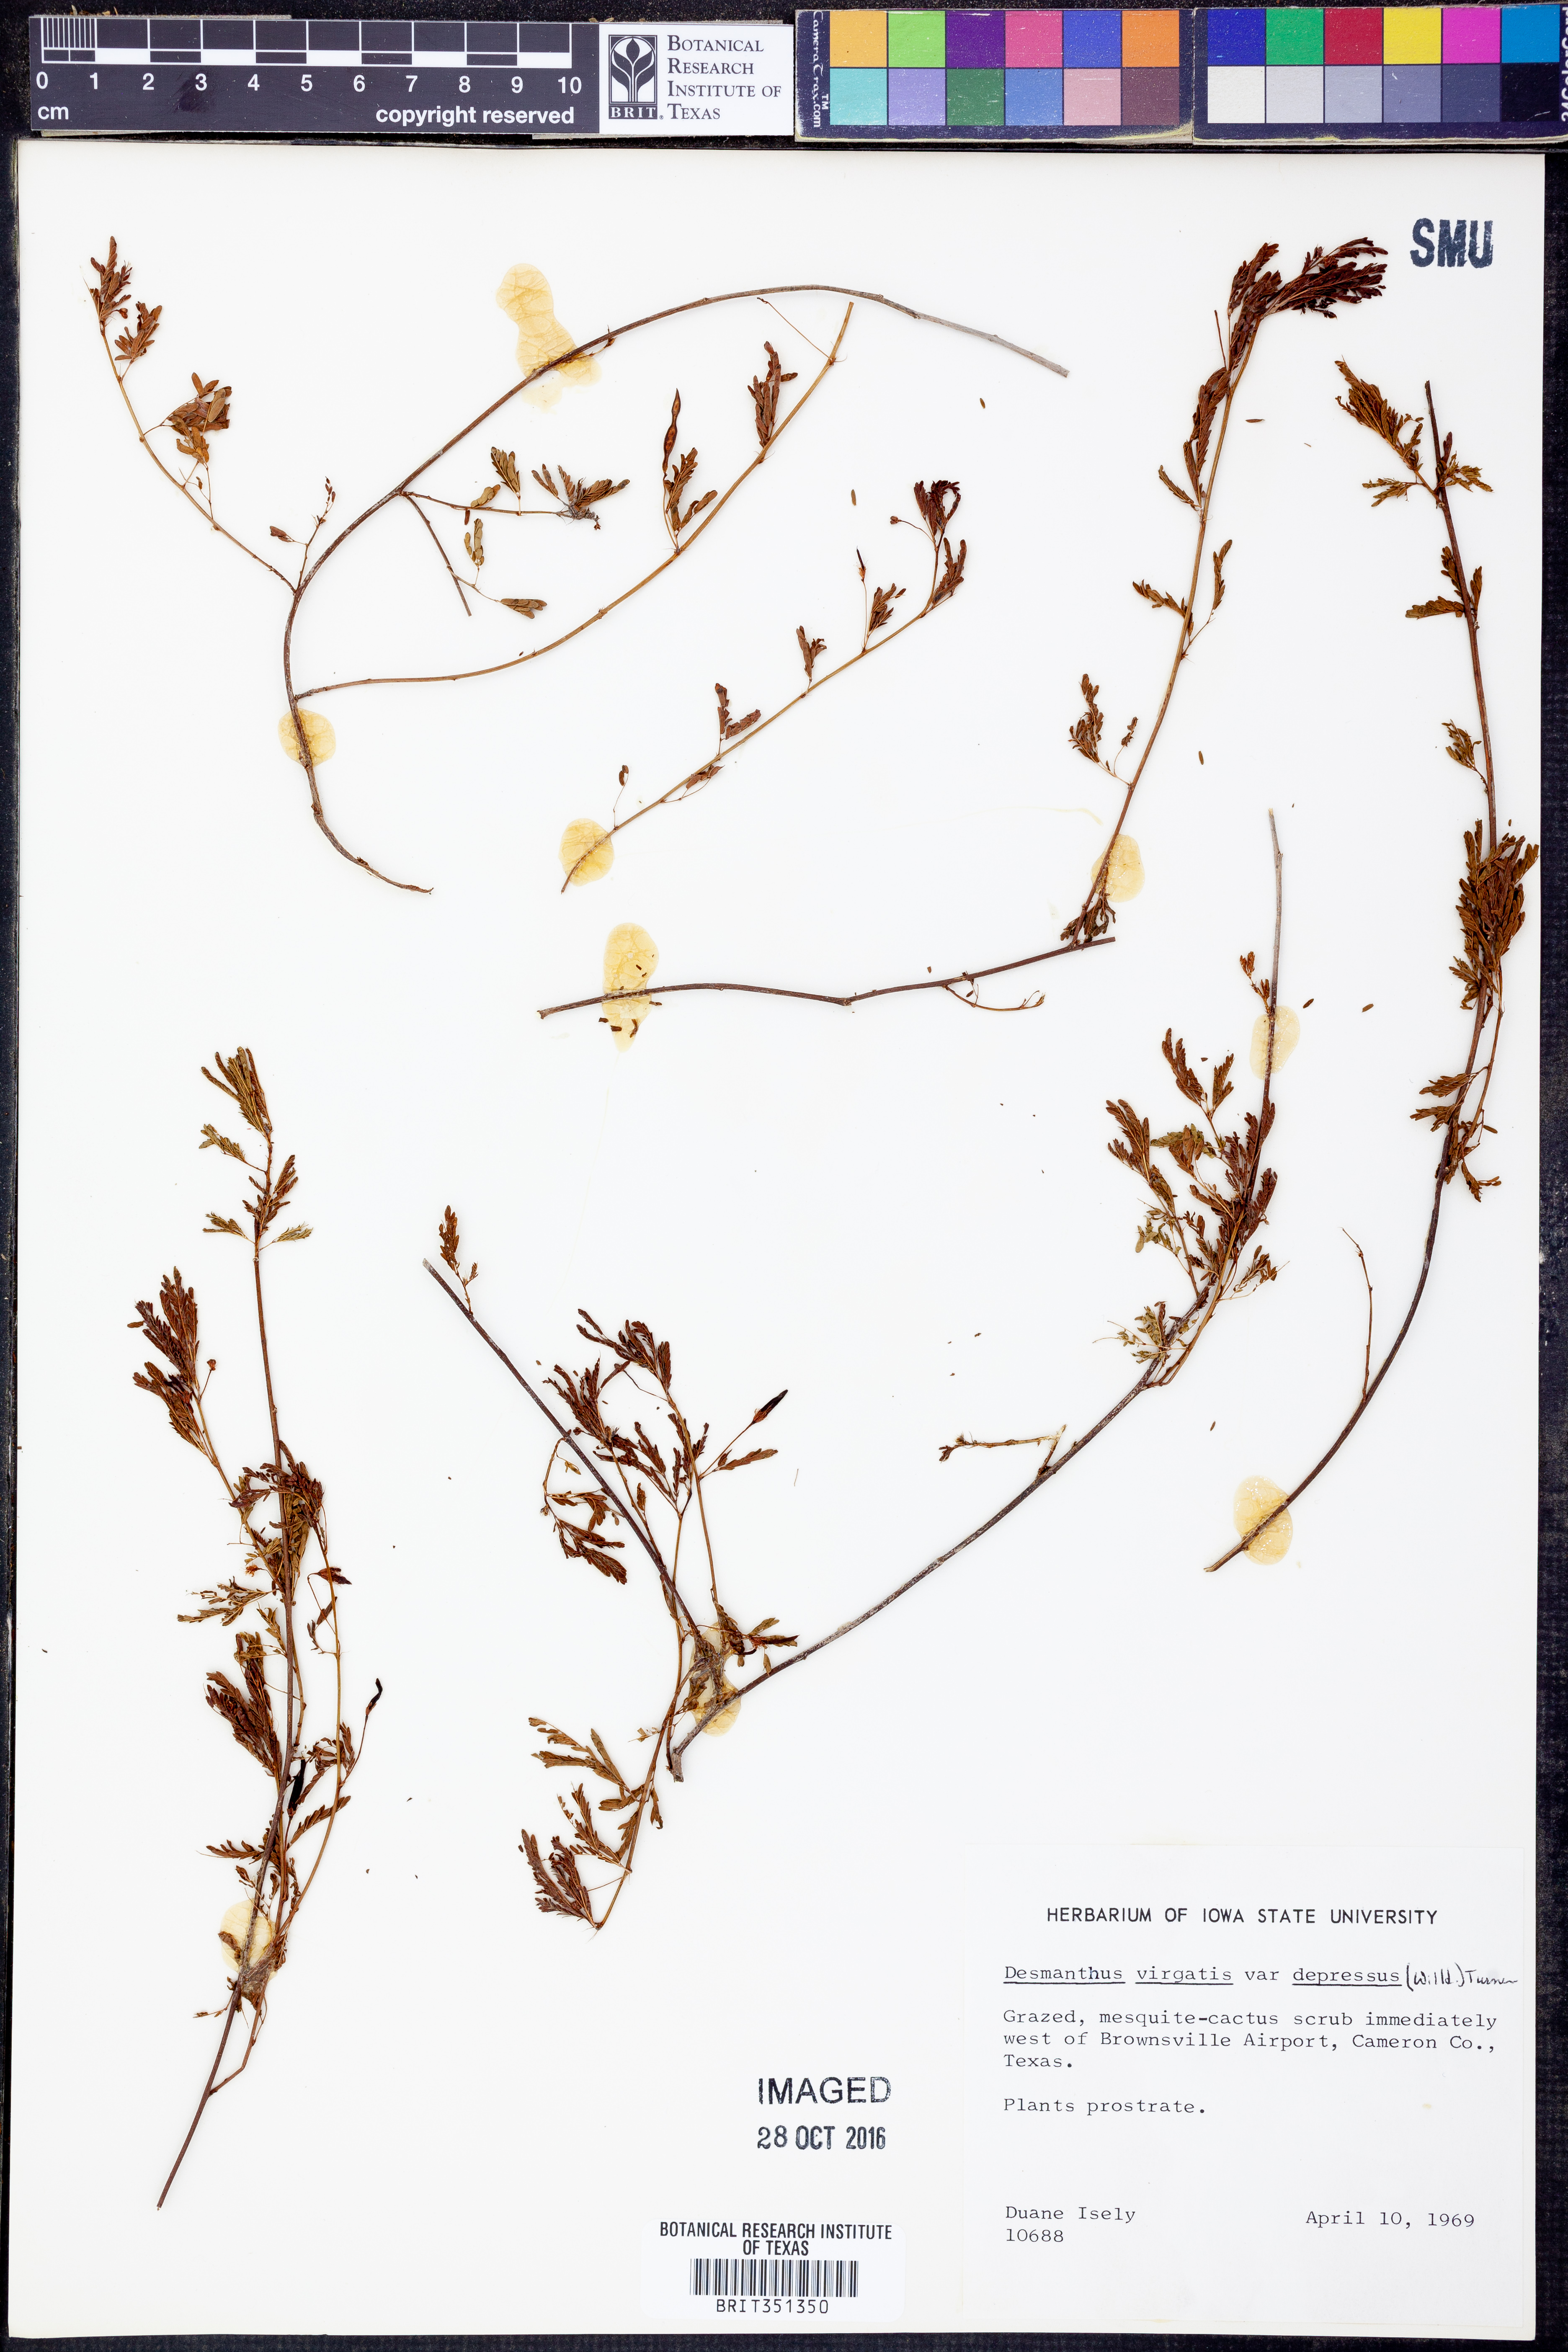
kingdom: Plantae
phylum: Tracheophyta
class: Magnoliopsida
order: Fabales
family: Fabaceae
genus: Desmanthus
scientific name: Desmanthus virgatus
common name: Wild tantan
